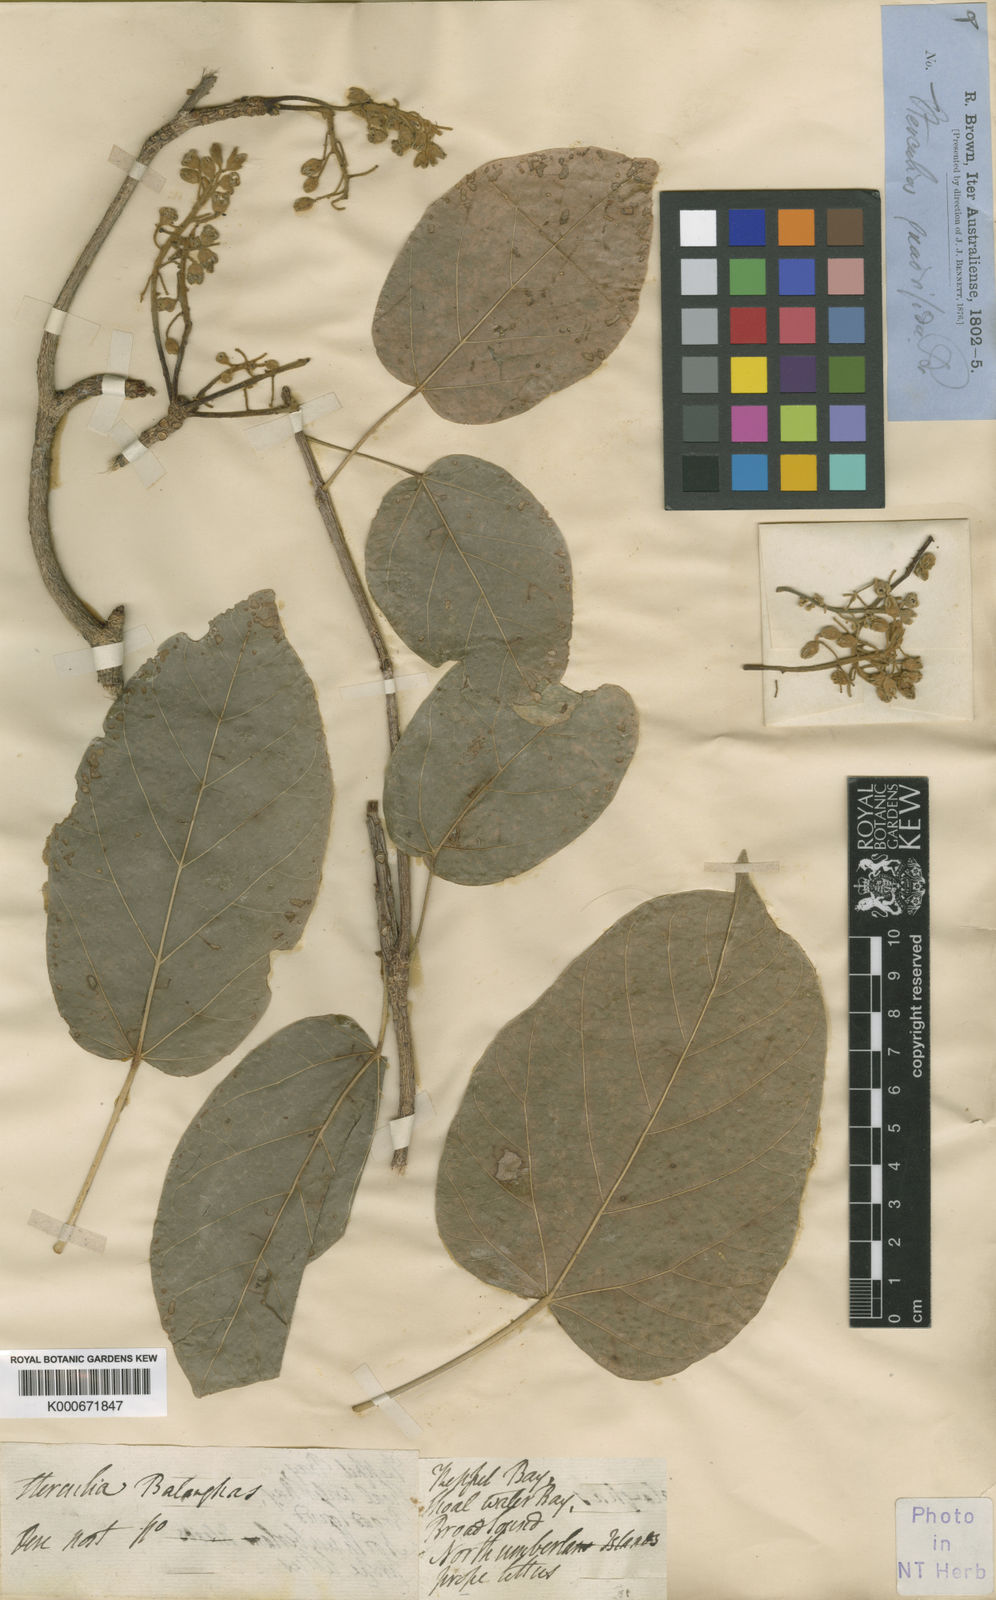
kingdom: Plantae
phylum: Tracheophyta
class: Magnoliopsida
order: Malvales
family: Malvaceae
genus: Sterculia
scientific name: Sterculia quadrifida
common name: Orange-fruit kurrajong
